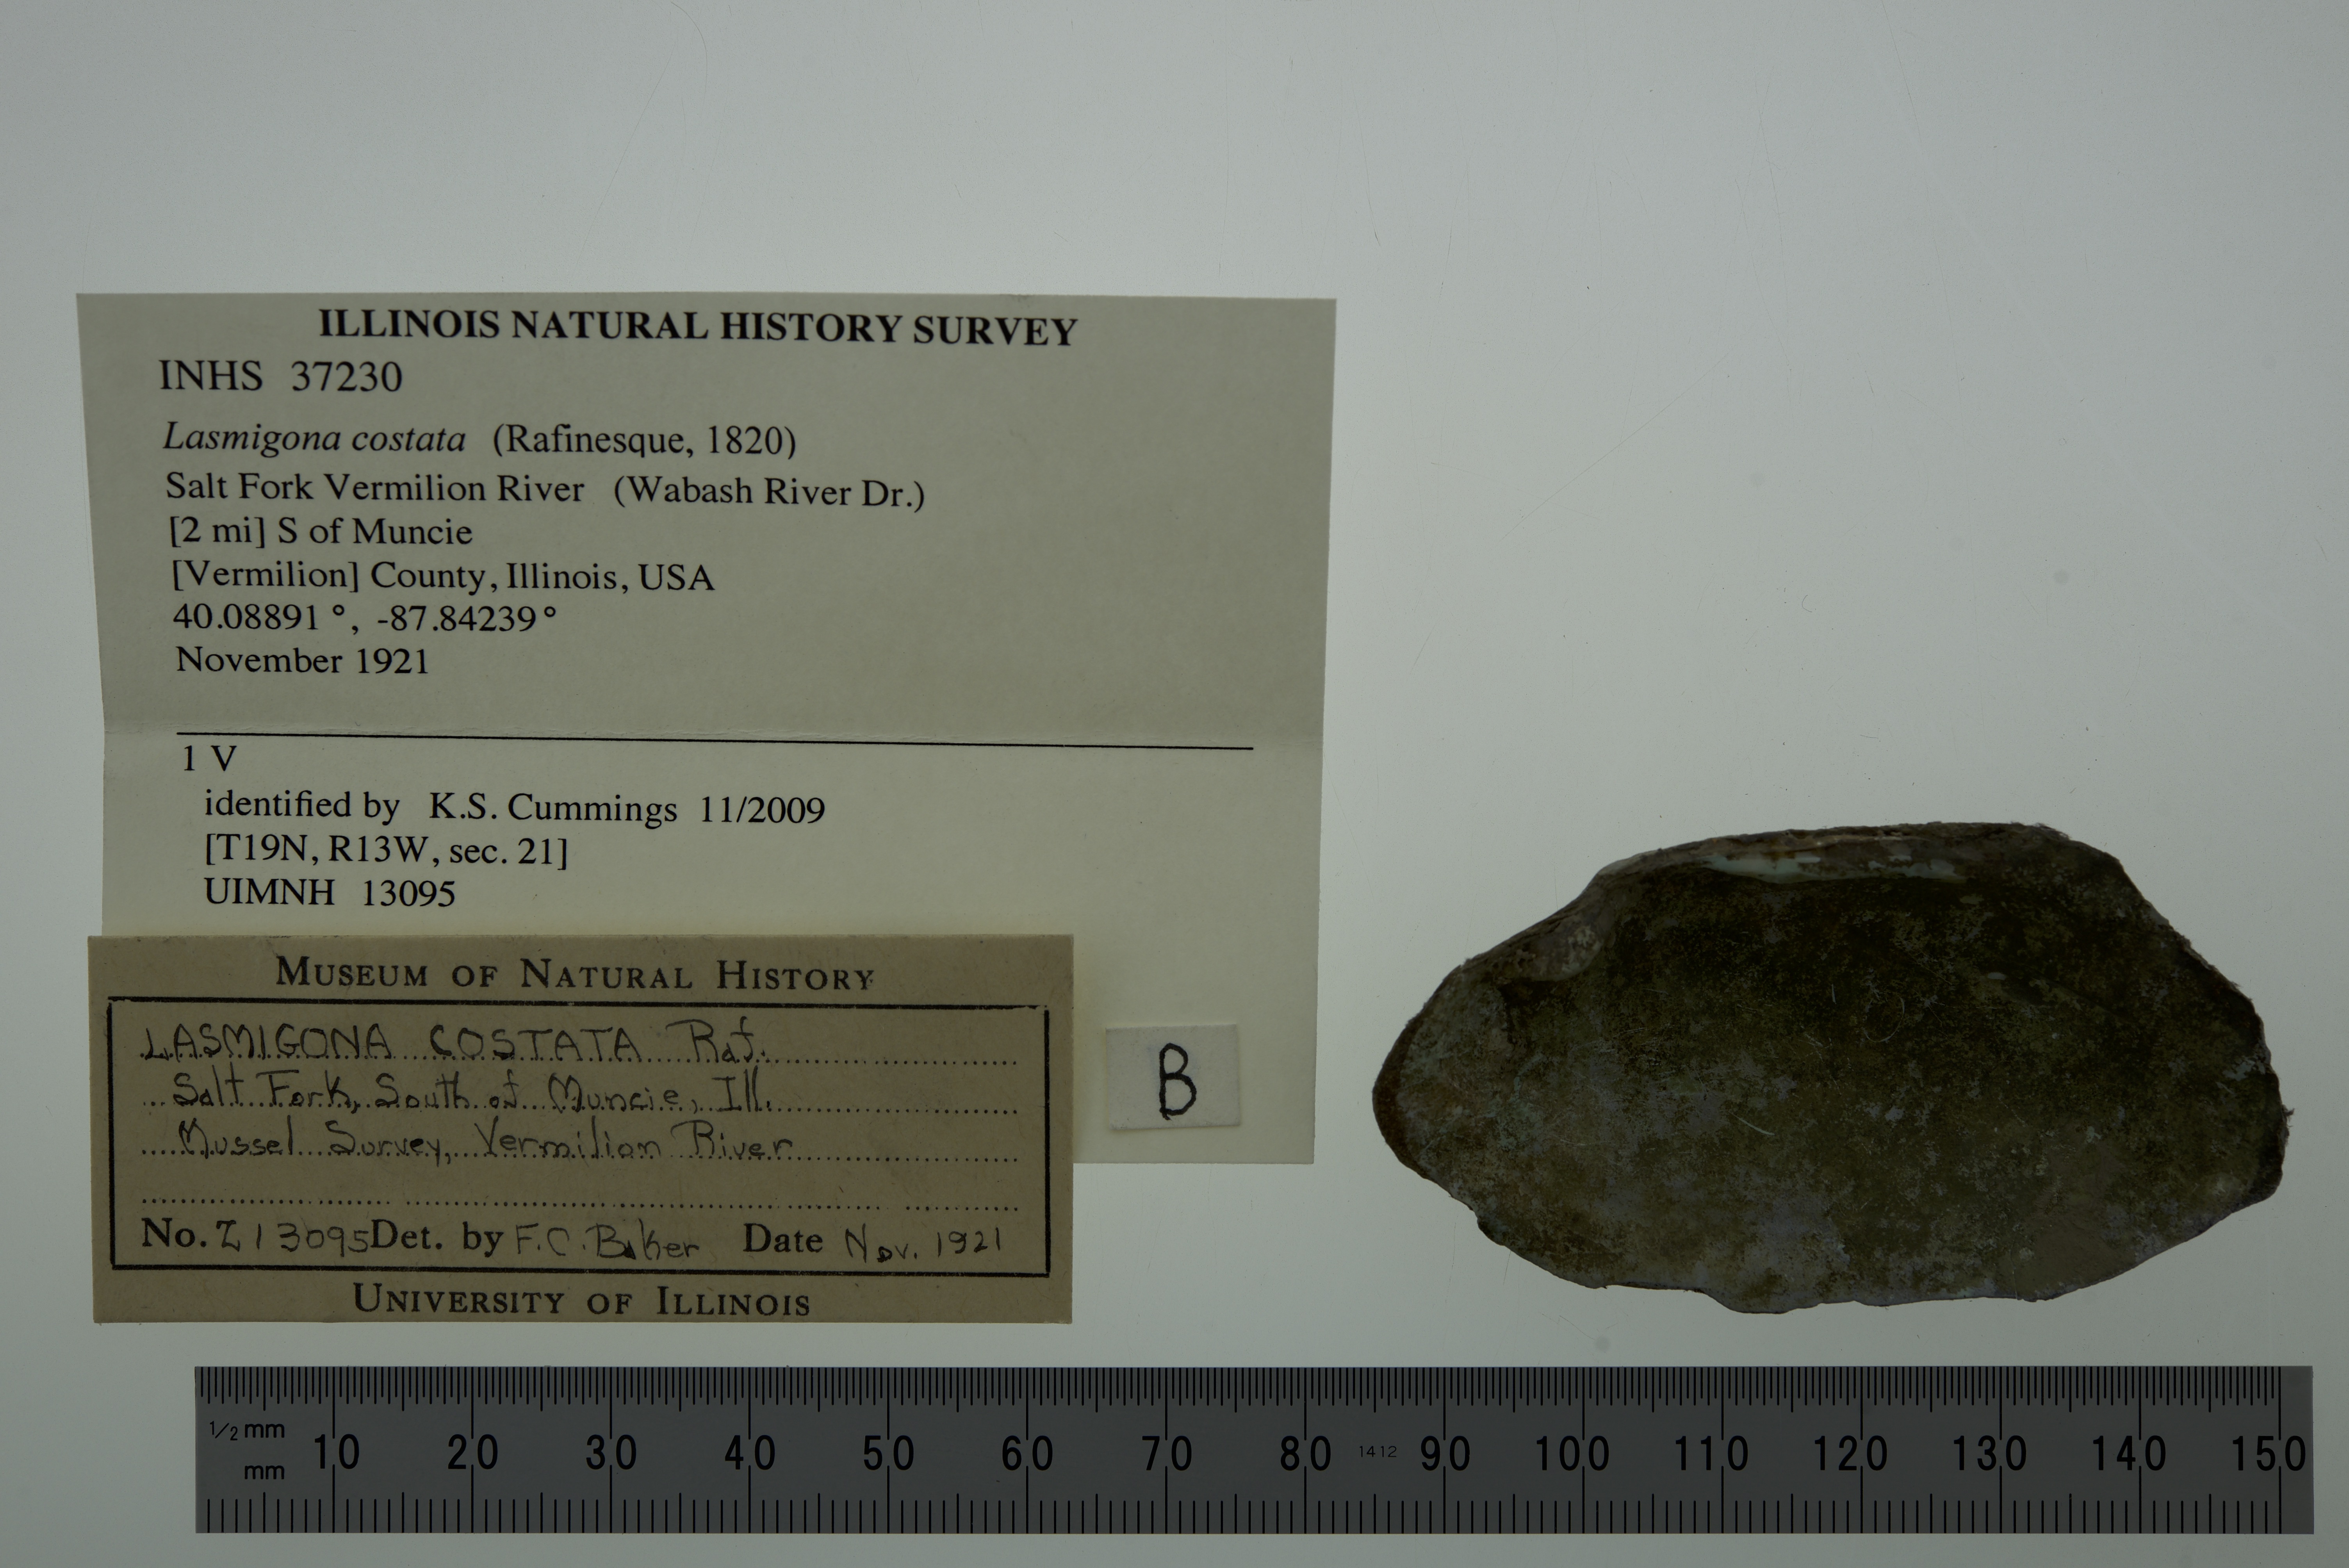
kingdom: Animalia
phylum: Mollusca
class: Bivalvia
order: Unionida
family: Unionidae
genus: Lasmigona
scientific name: Lasmigona costata
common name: Flutedshell
